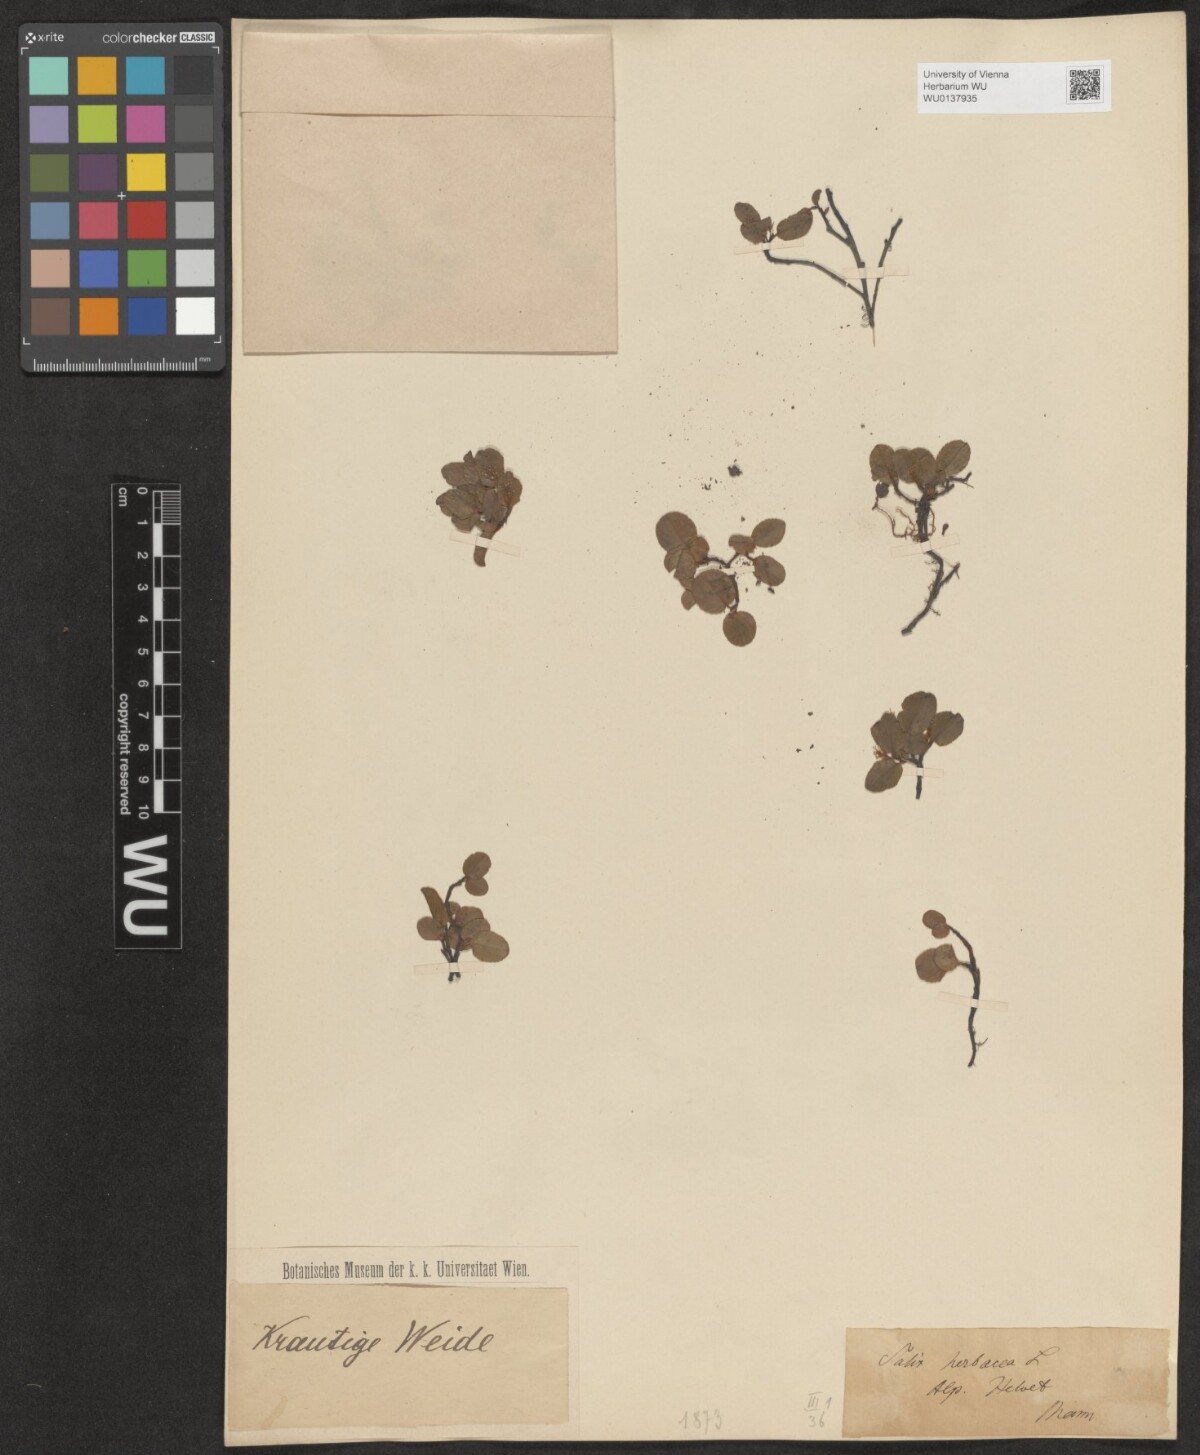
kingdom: Plantae
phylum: Tracheophyta
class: Magnoliopsida
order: Malpighiales
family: Salicaceae
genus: Salix
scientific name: Salix herbacea
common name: Dwarf willow
